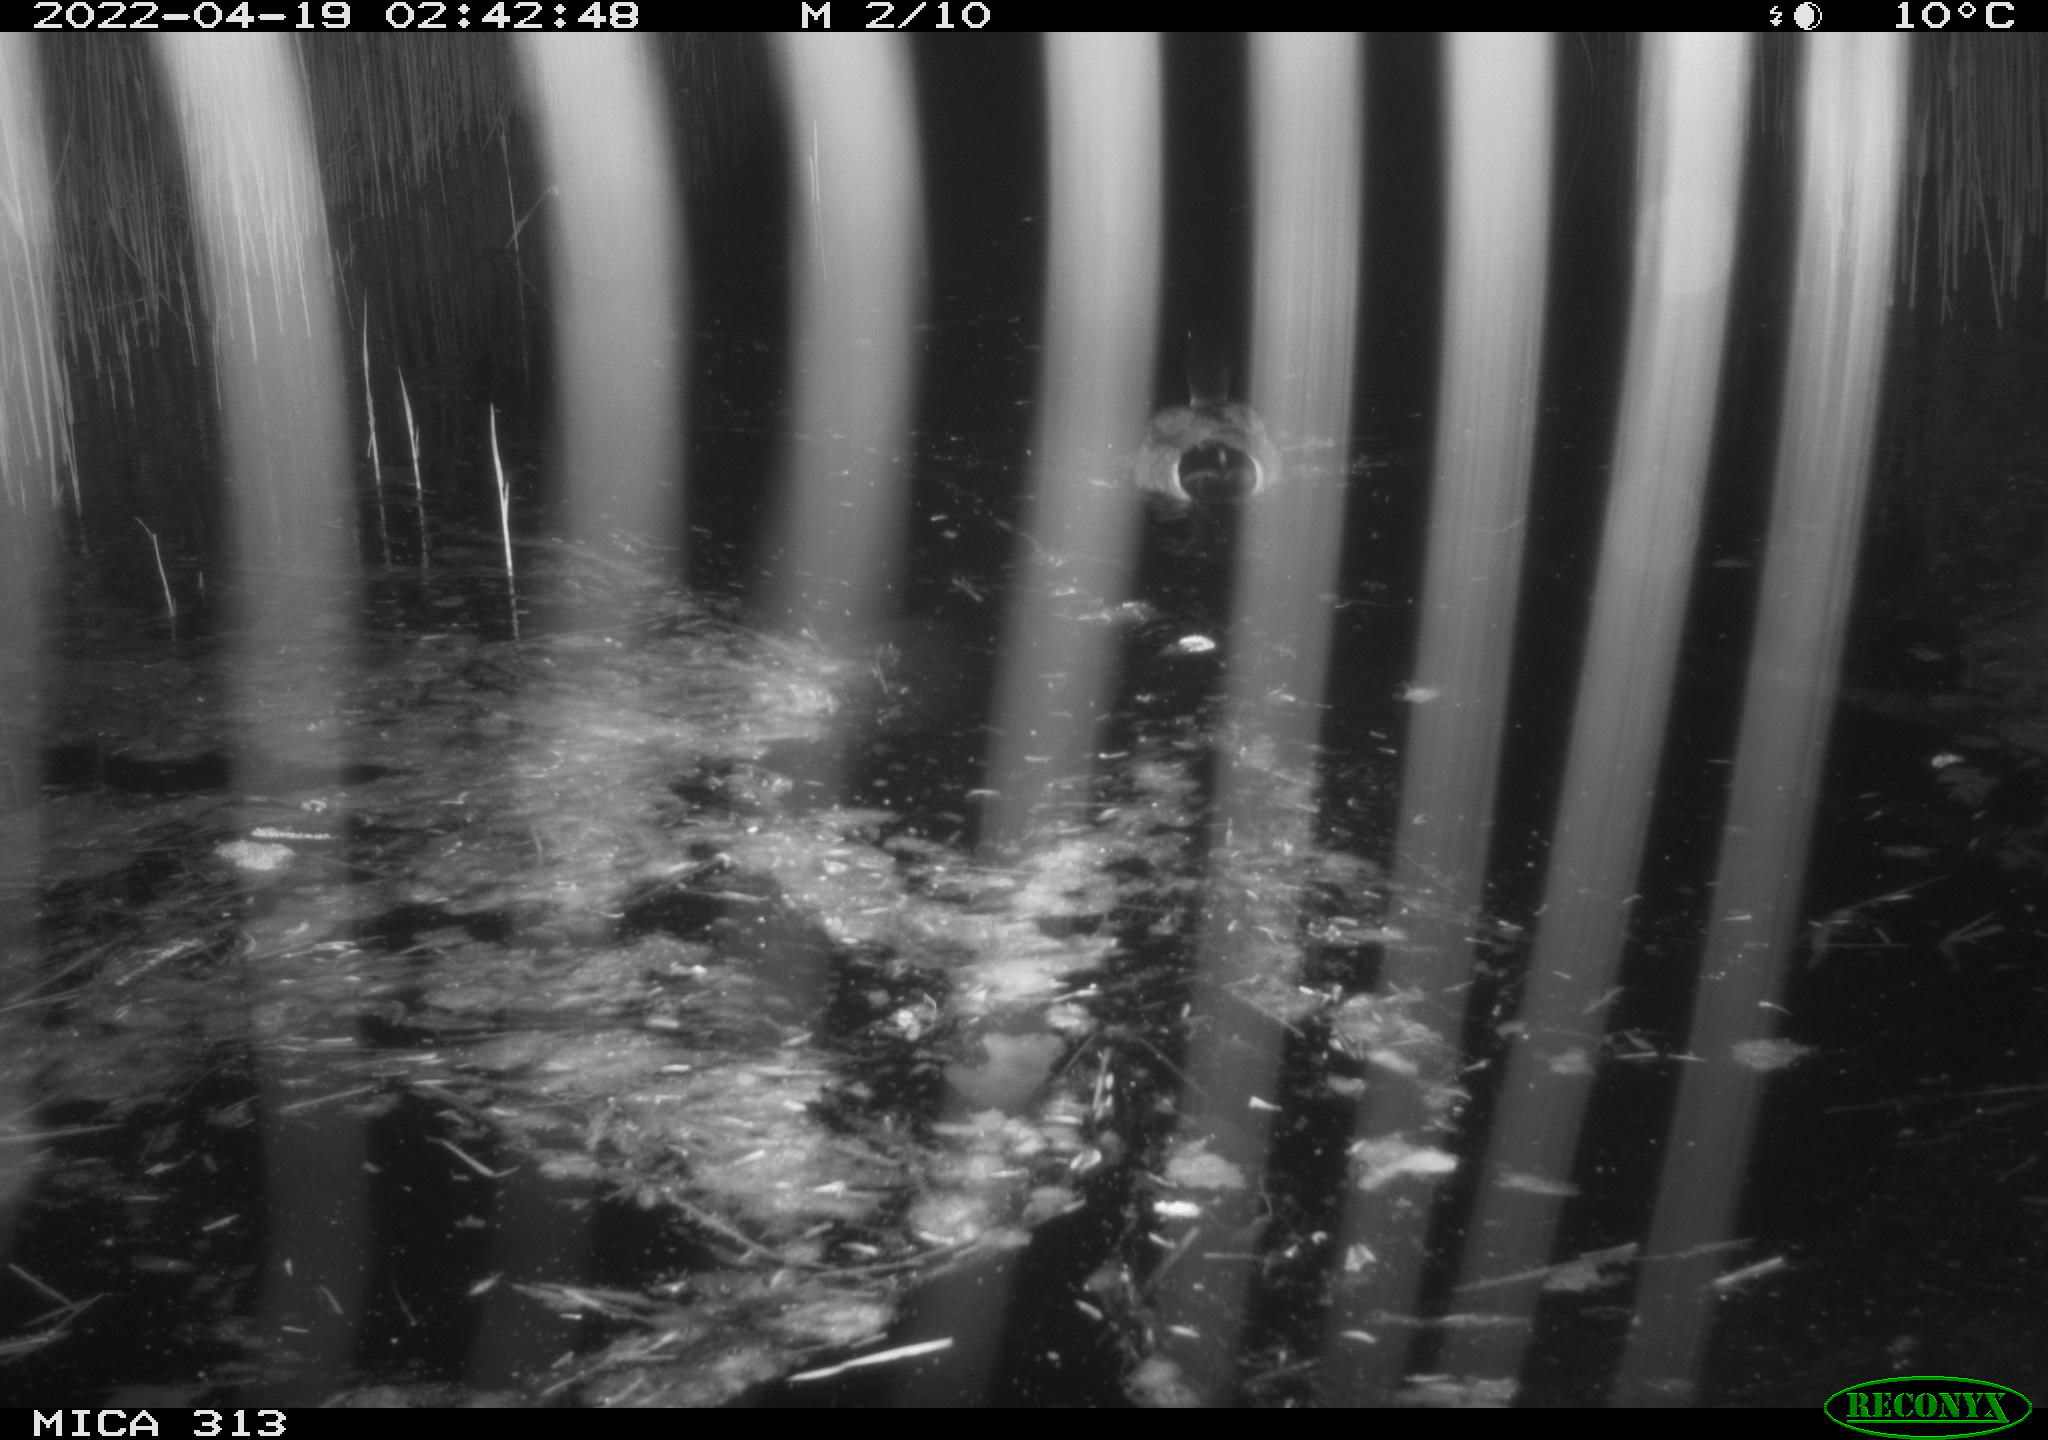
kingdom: Animalia
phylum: Chordata
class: Aves
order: Anseriformes
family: Anatidae
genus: Anas
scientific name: Anas platyrhynchos
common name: Mallard
